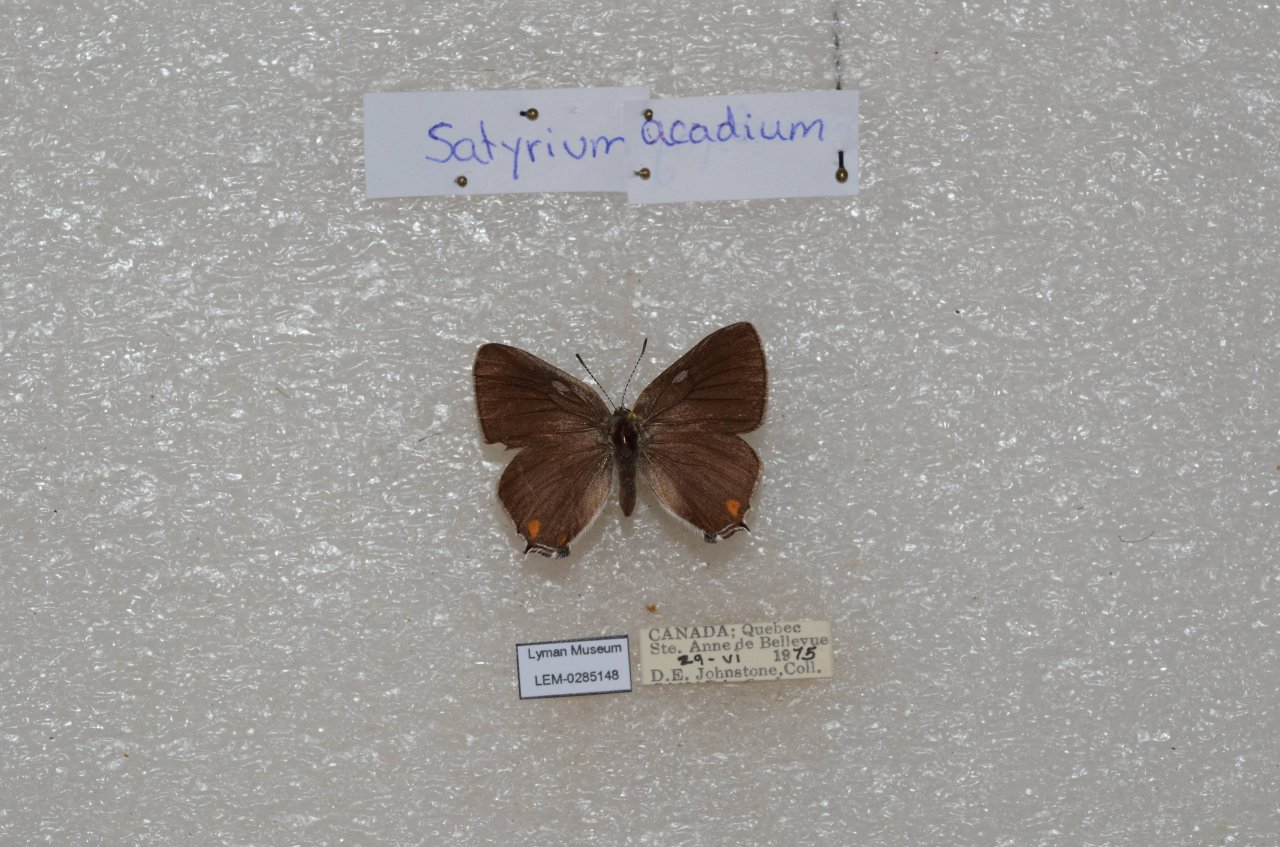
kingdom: Animalia
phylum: Arthropoda
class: Insecta
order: Lepidoptera
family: Lycaenidae
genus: Strymon
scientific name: Strymon acadica
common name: Acadian Hairstreak
